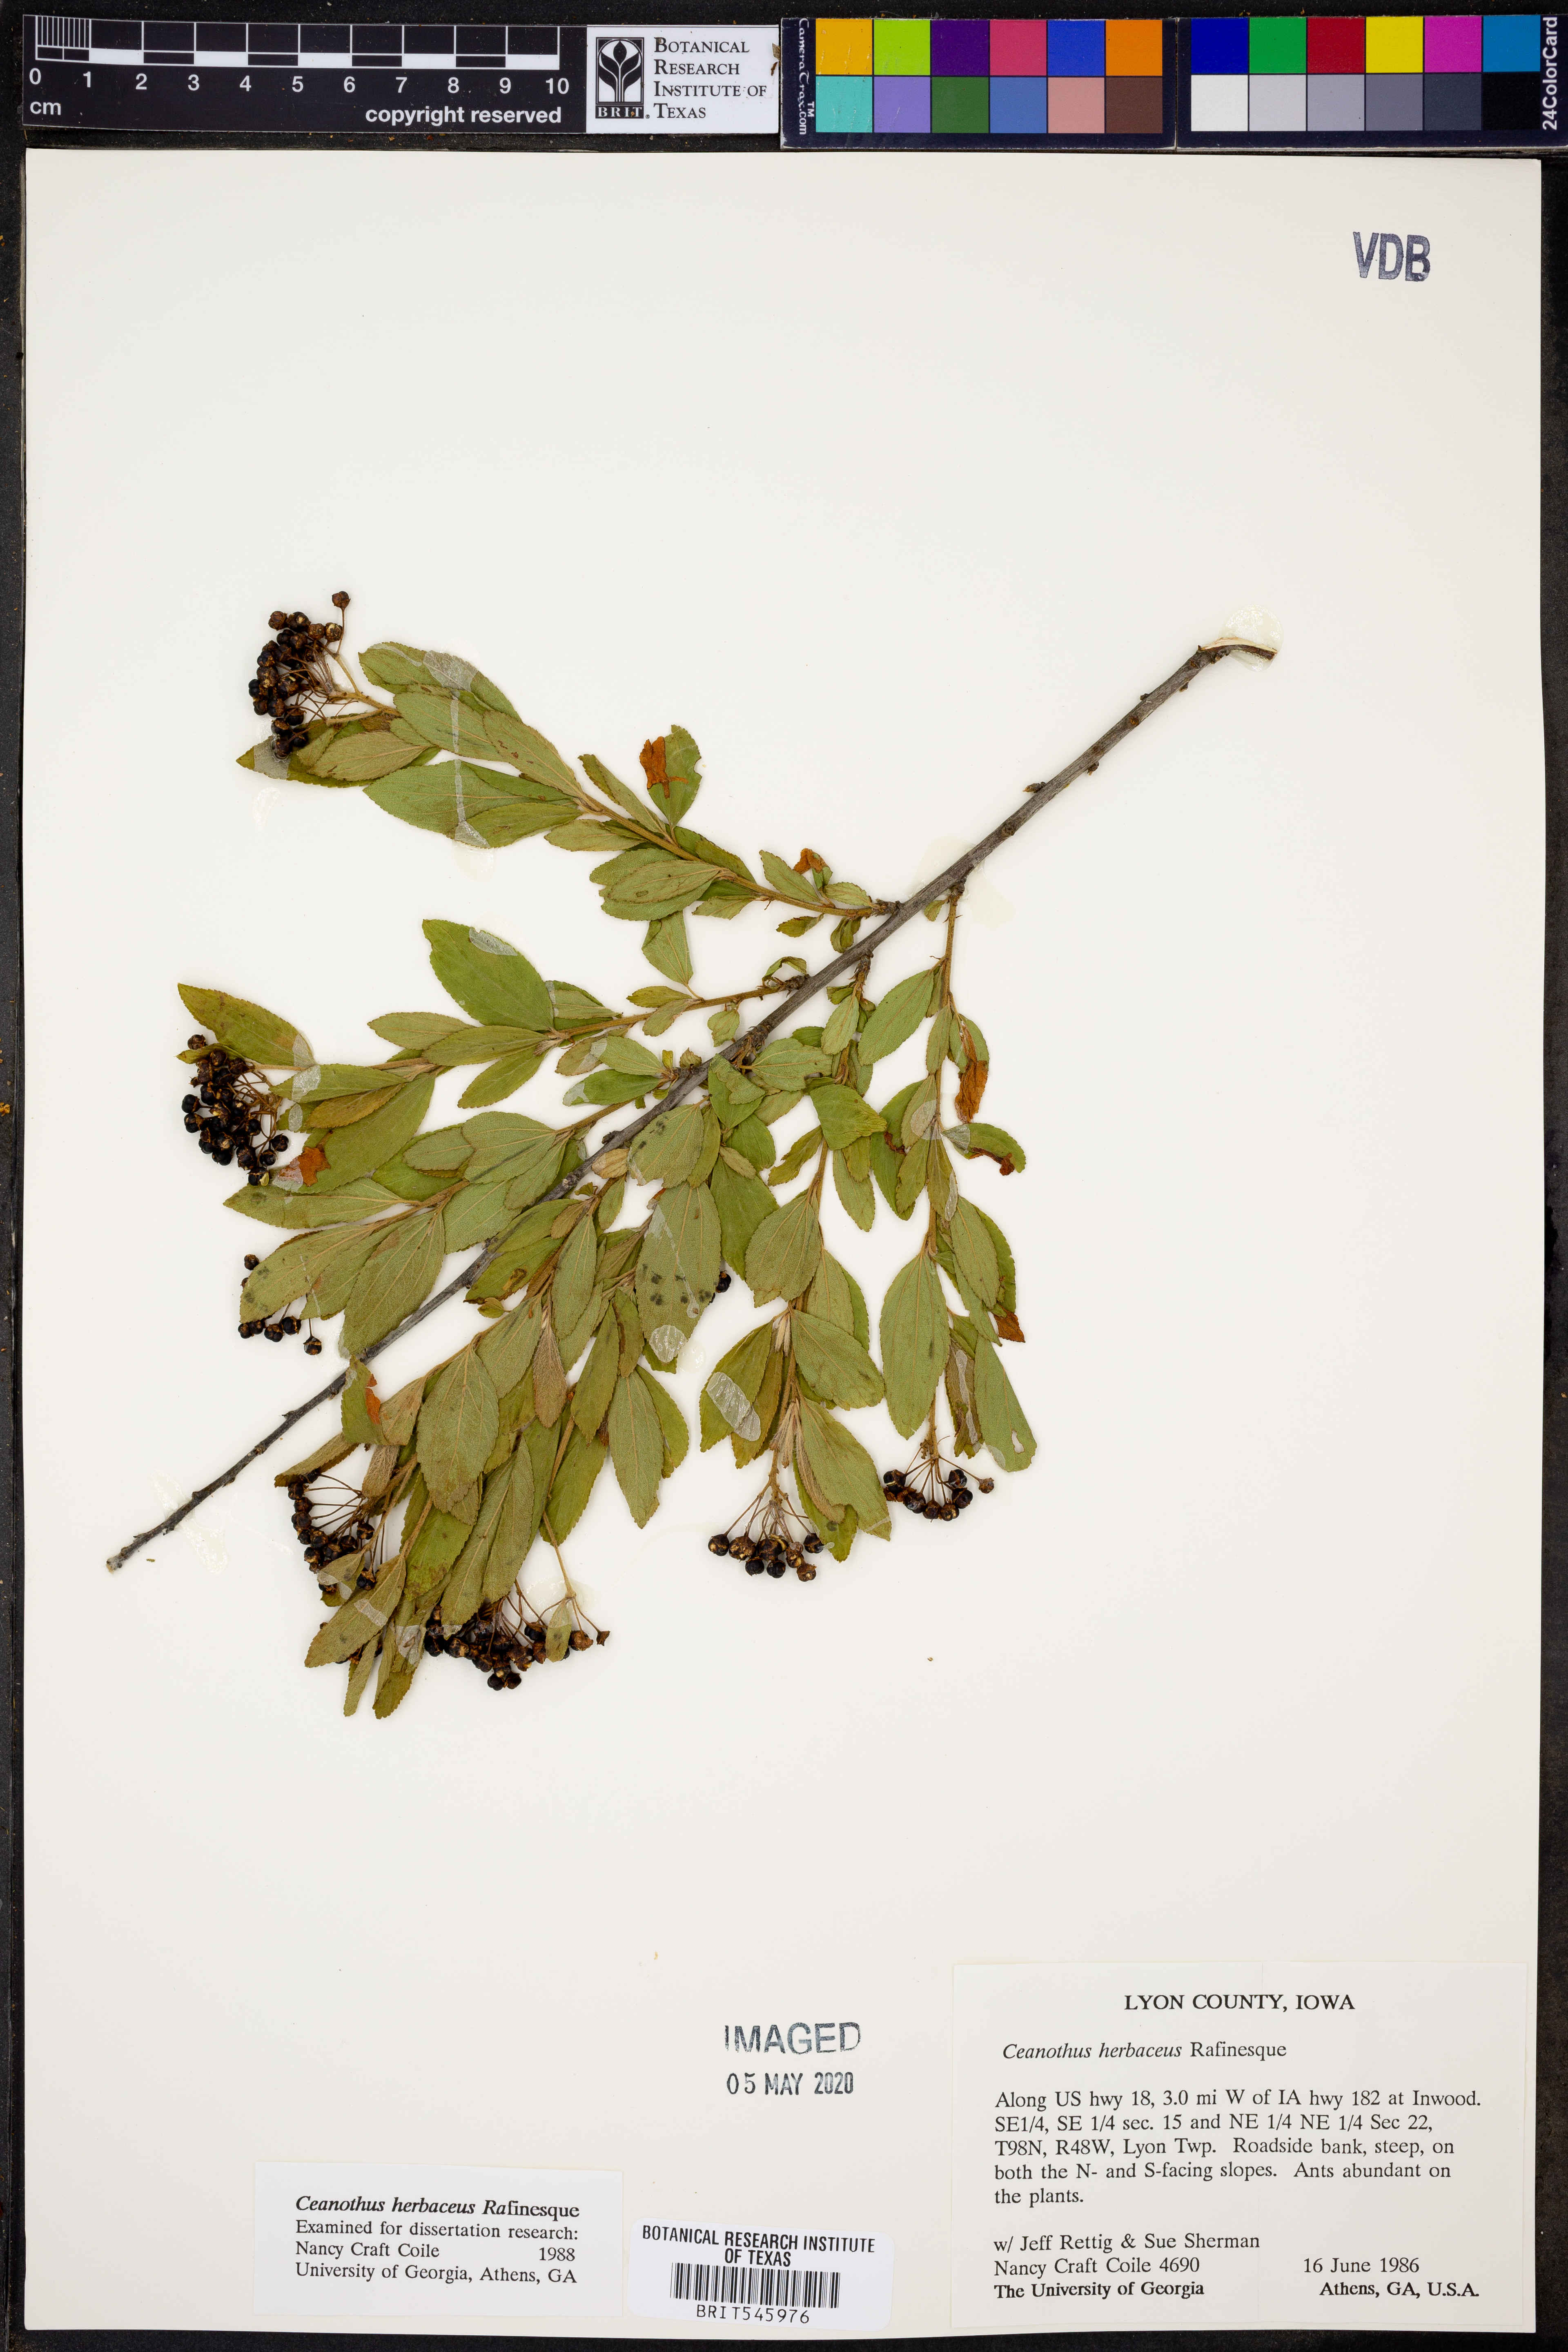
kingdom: Plantae
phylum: Tracheophyta
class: Magnoliopsida
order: Rosales
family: Rhamnaceae
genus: Ceanothus
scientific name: Ceanothus herbaceus
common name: Inland ceanothus
